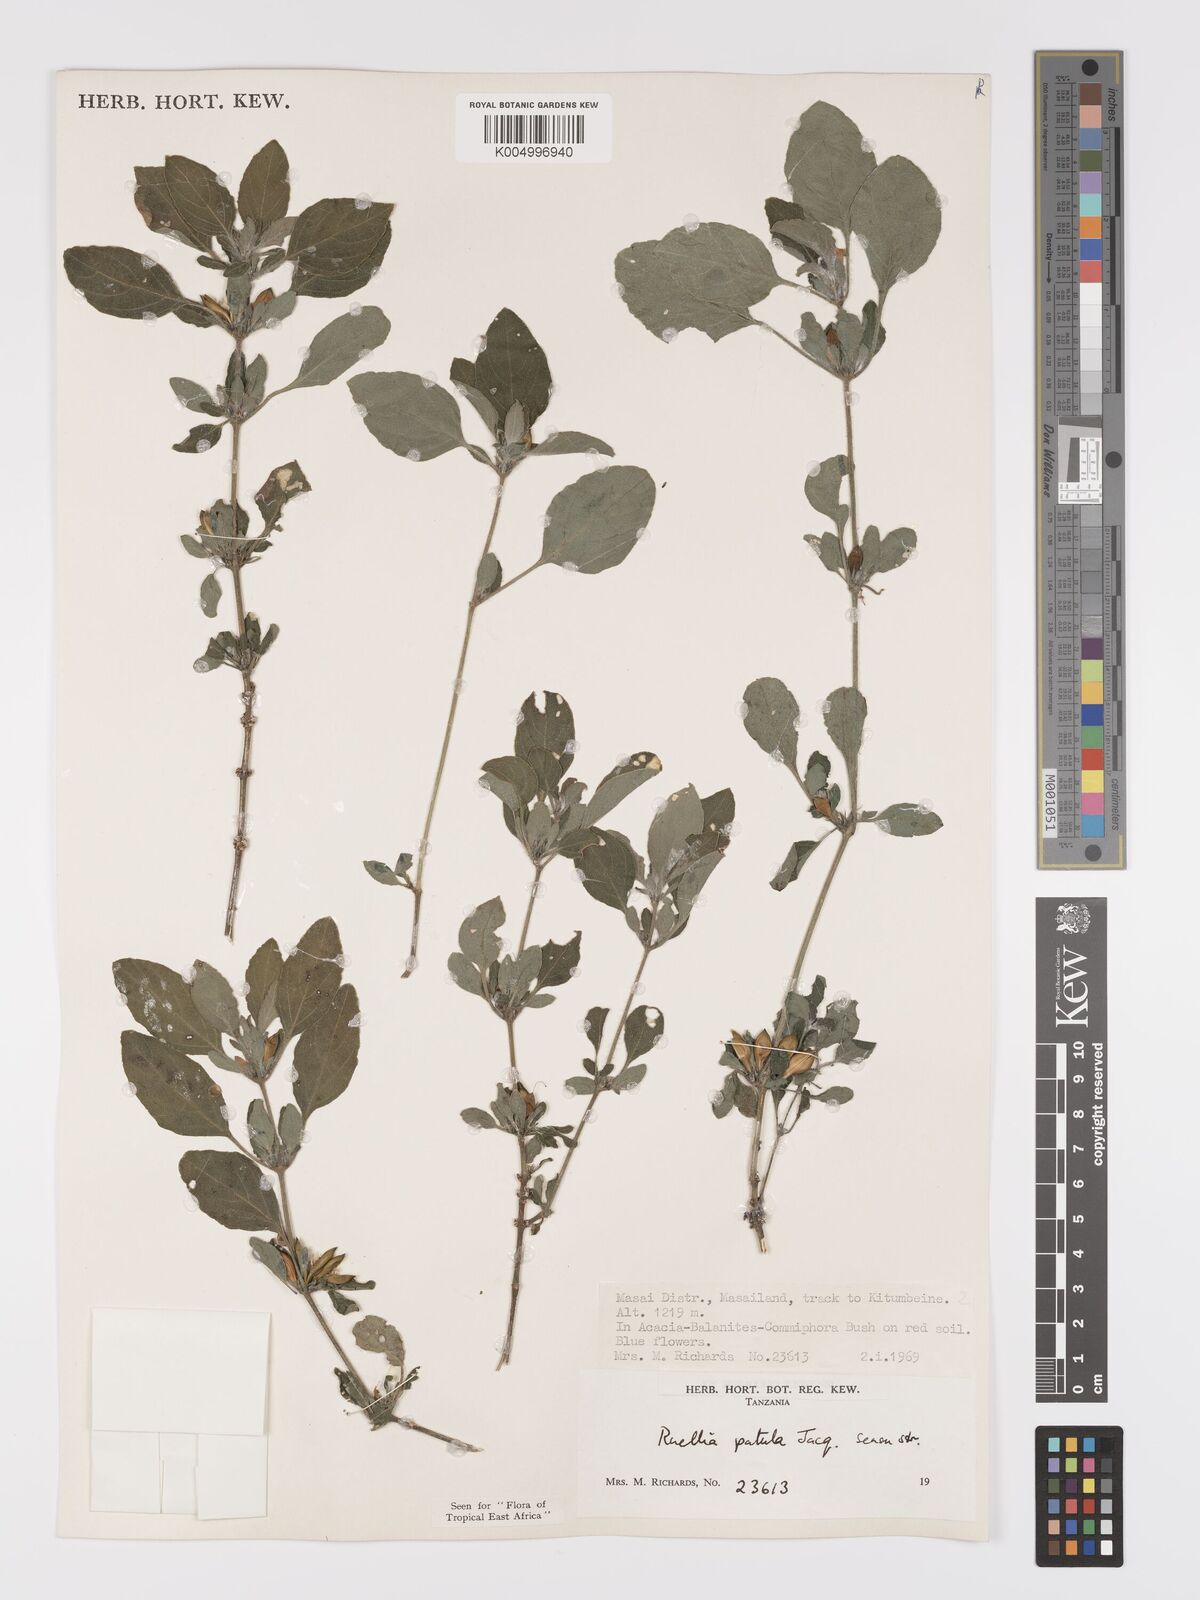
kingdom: Plantae
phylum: Tracheophyta
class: Magnoliopsida
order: Lamiales
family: Acanthaceae
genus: Ruellia
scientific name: Ruellia patula
